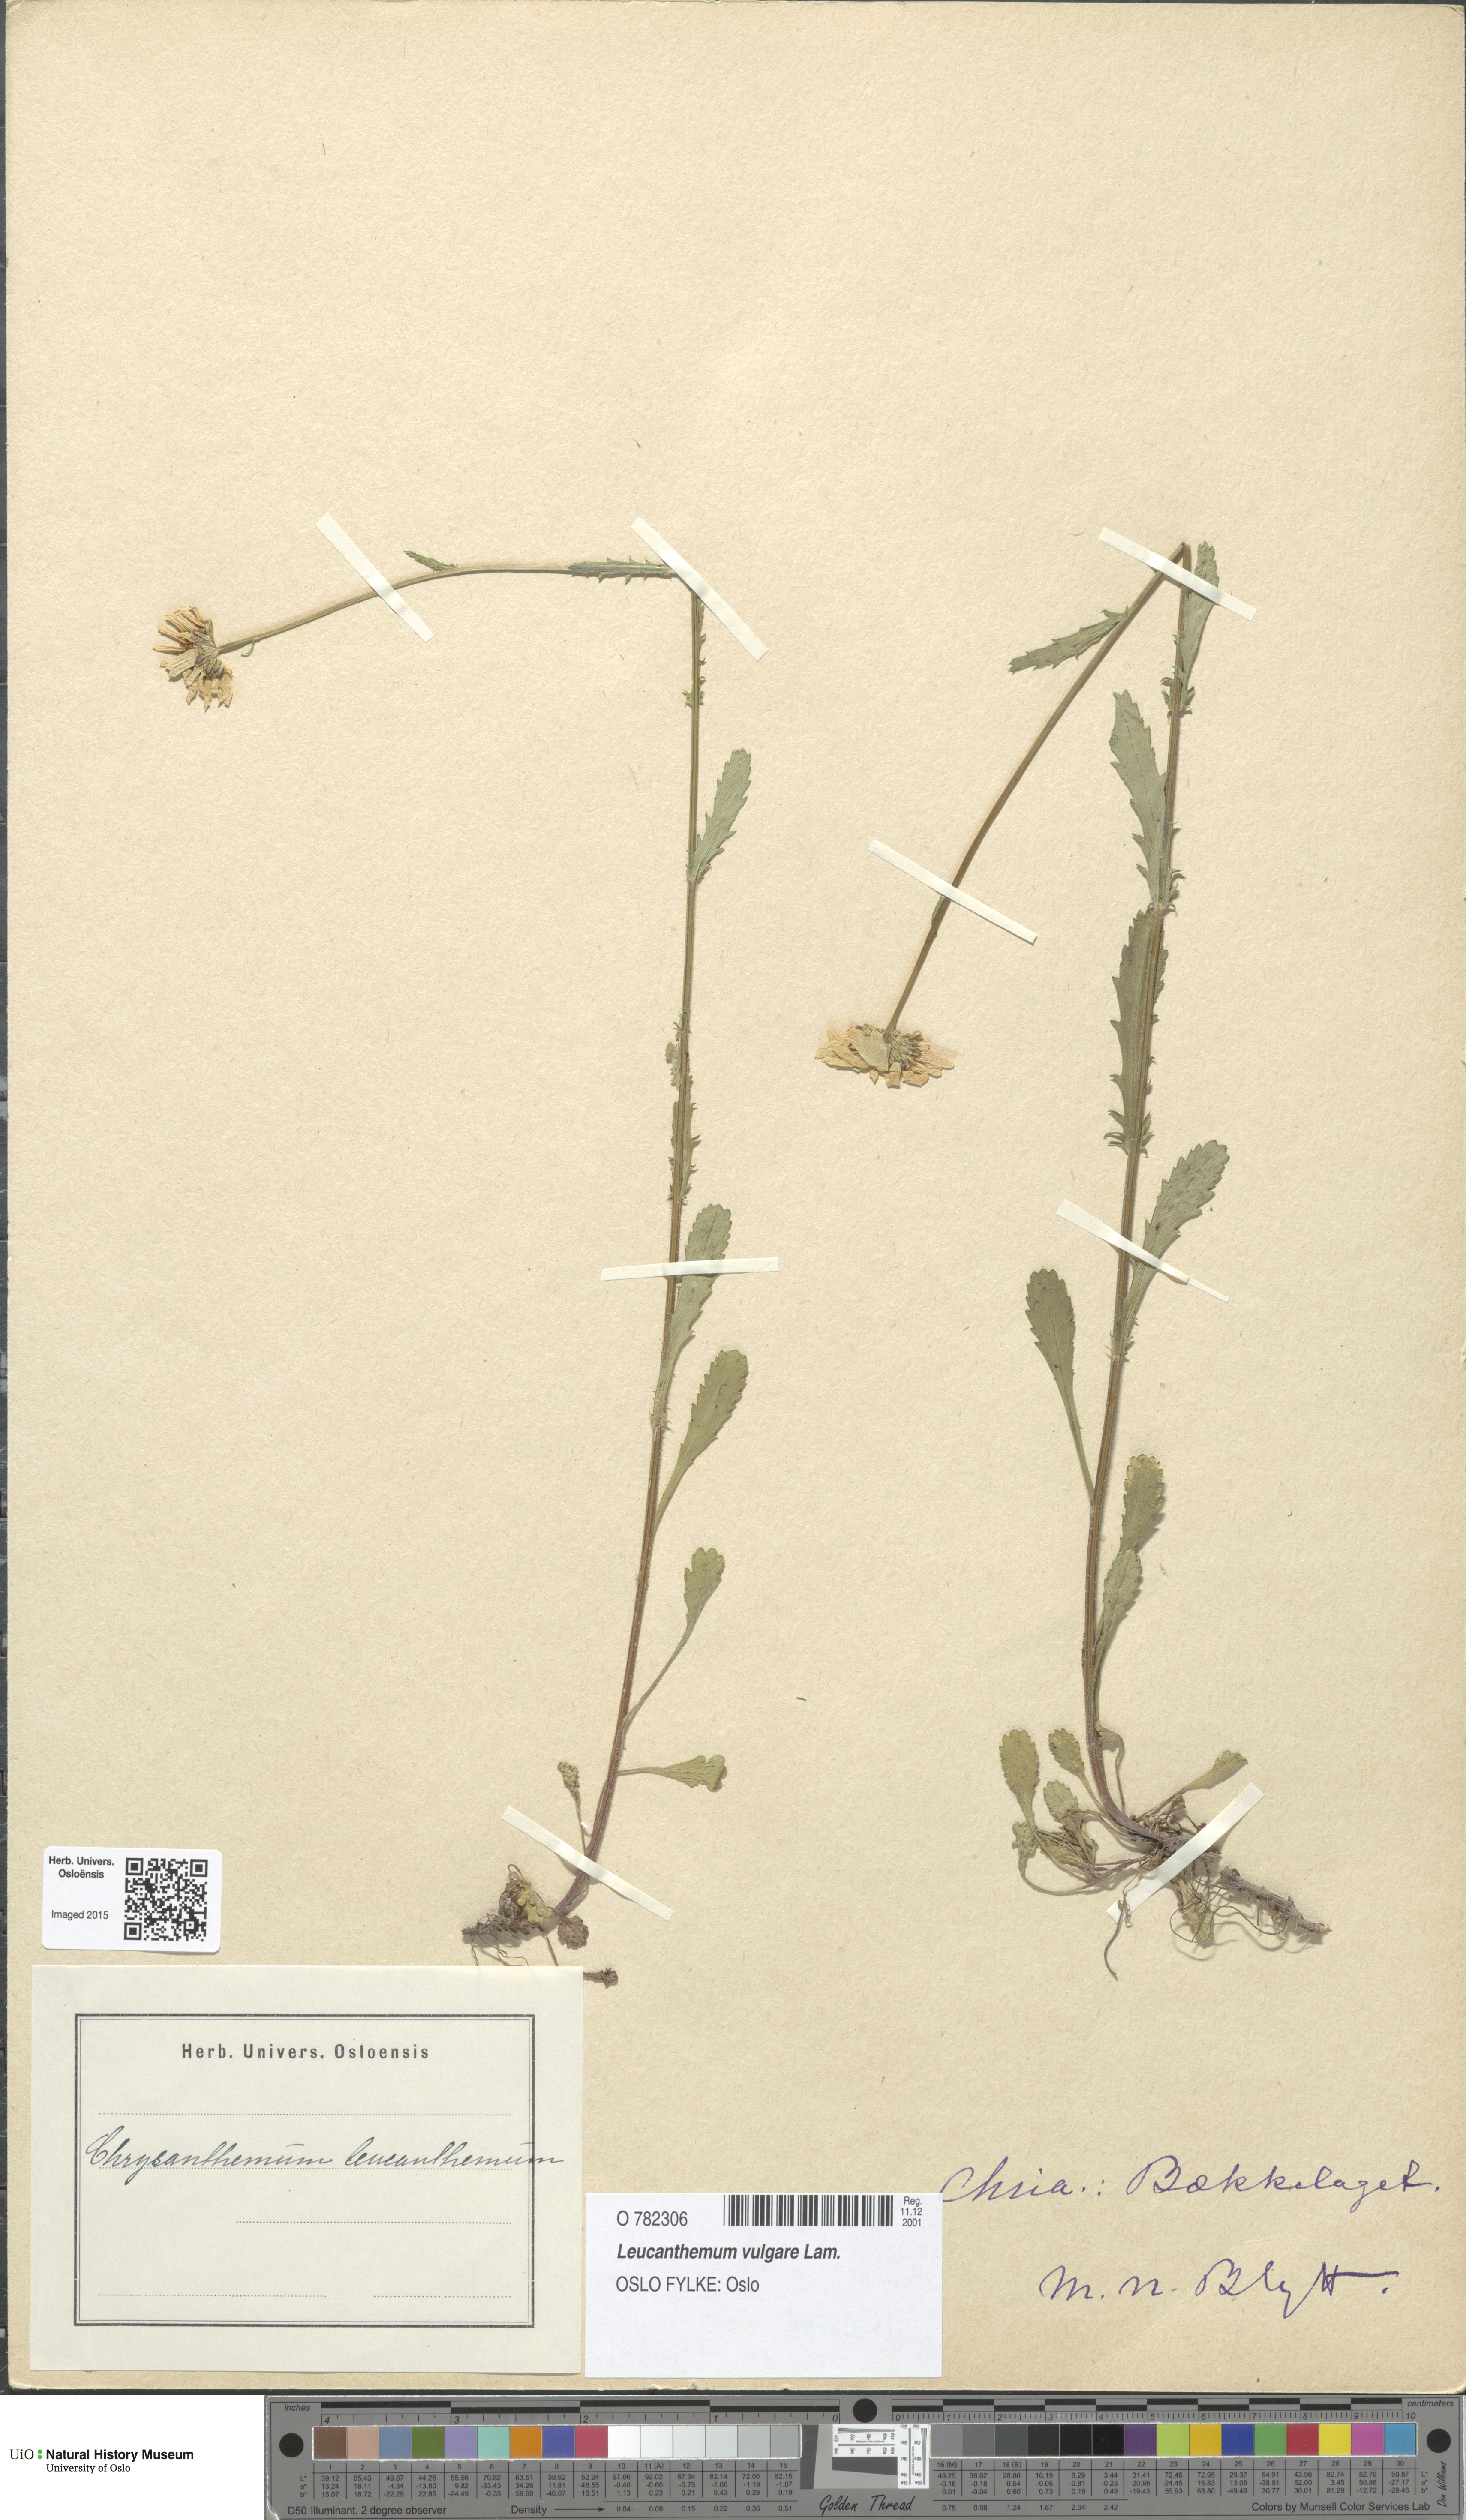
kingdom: Plantae
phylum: Tracheophyta
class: Magnoliopsida
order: Asterales
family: Asteraceae
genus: Leucanthemum
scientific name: Leucanthemum vulgare
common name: Oxeye daisy
